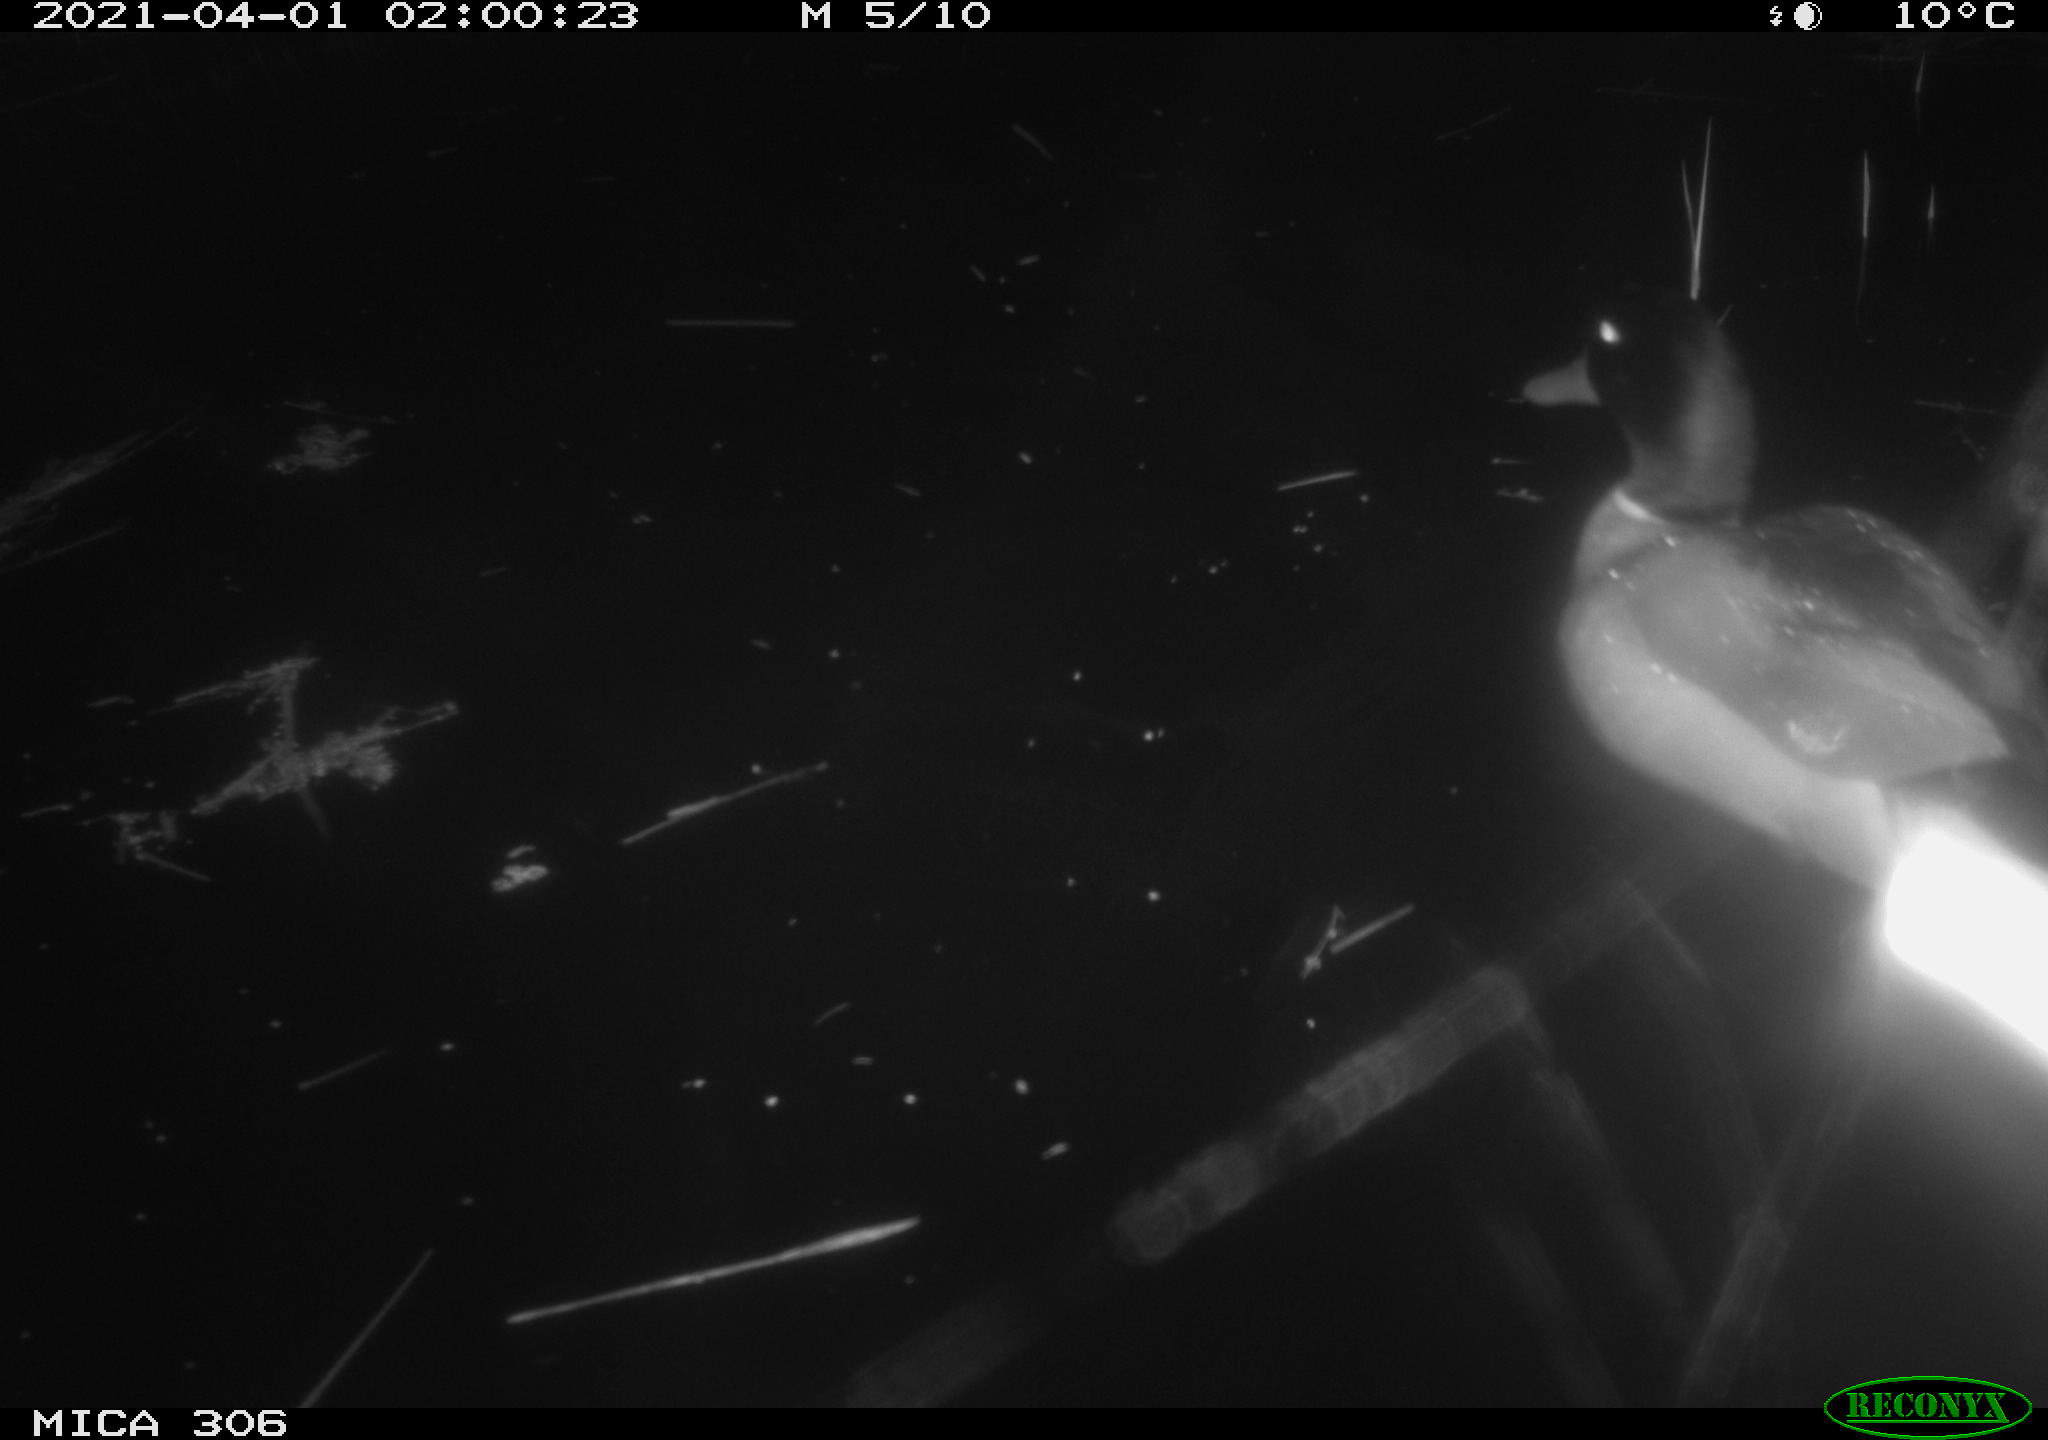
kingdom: Animalia
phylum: Chordata
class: Aves
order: Anseriformes
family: Anatidae
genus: Anas
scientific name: Anas platyrhynchos
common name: Mallard
